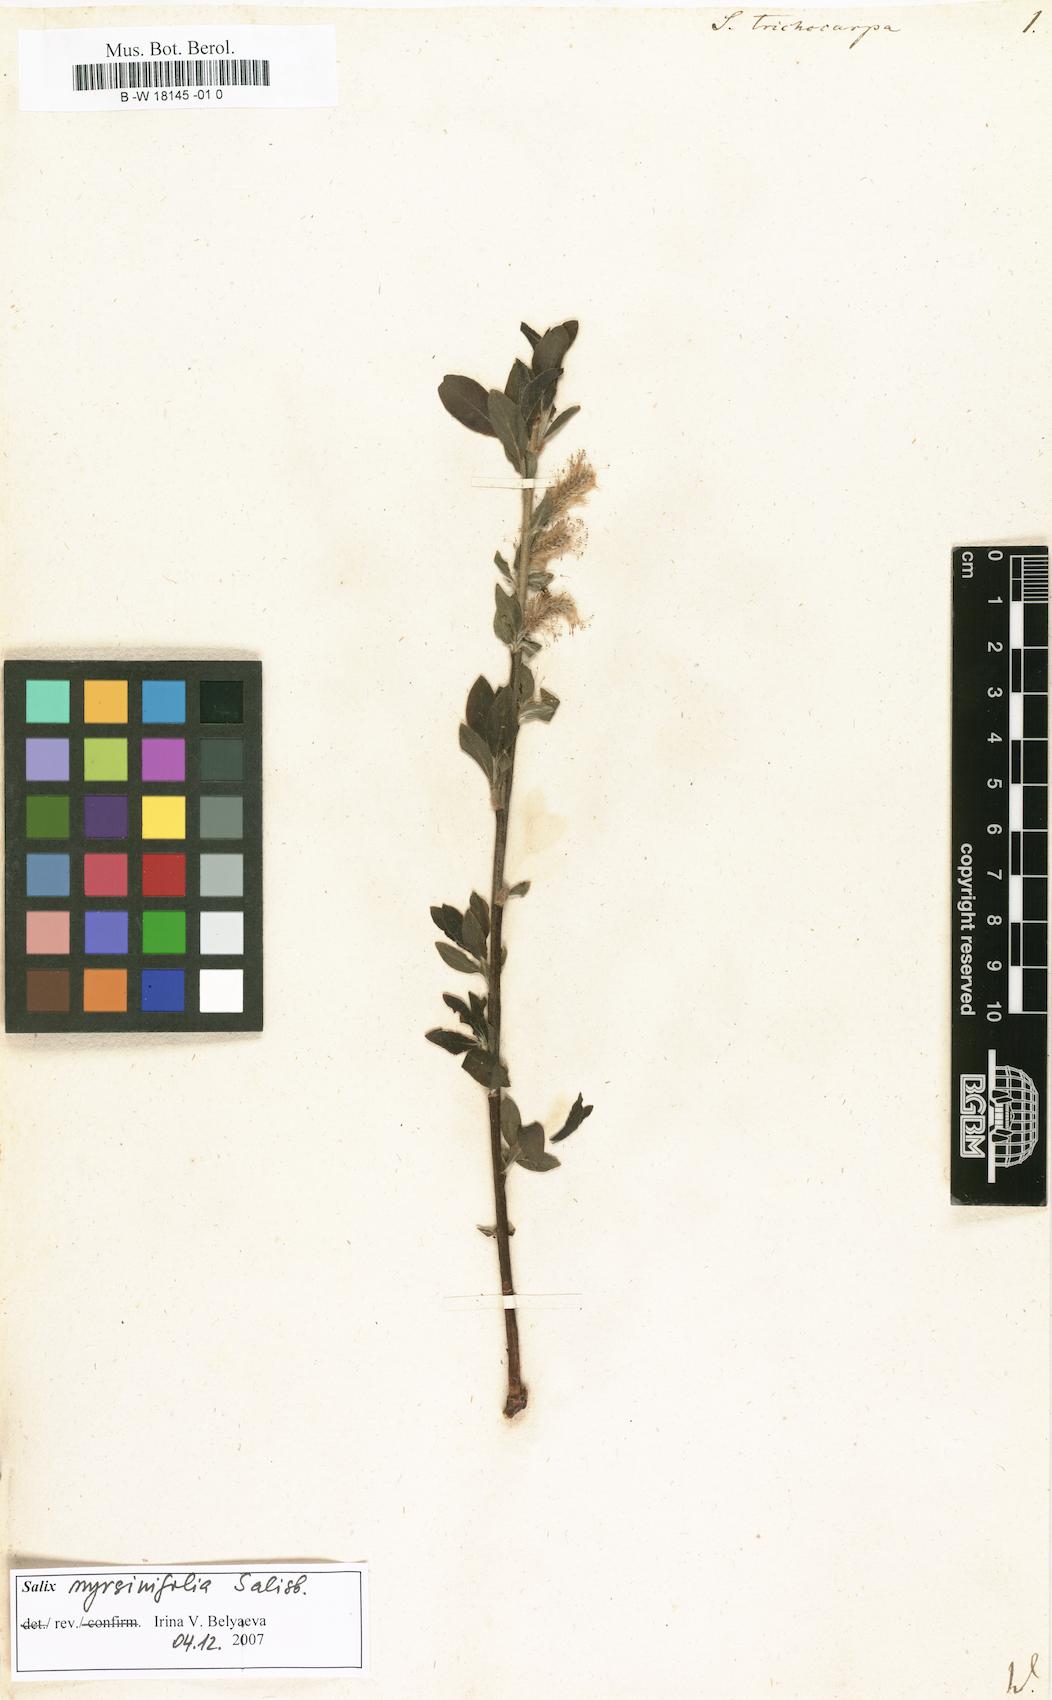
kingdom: Plantae
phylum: Tracheophyta
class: Magnoliopsida
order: Malpighiales
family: Salicaceae
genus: Salix
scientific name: Salix trichocarpa
